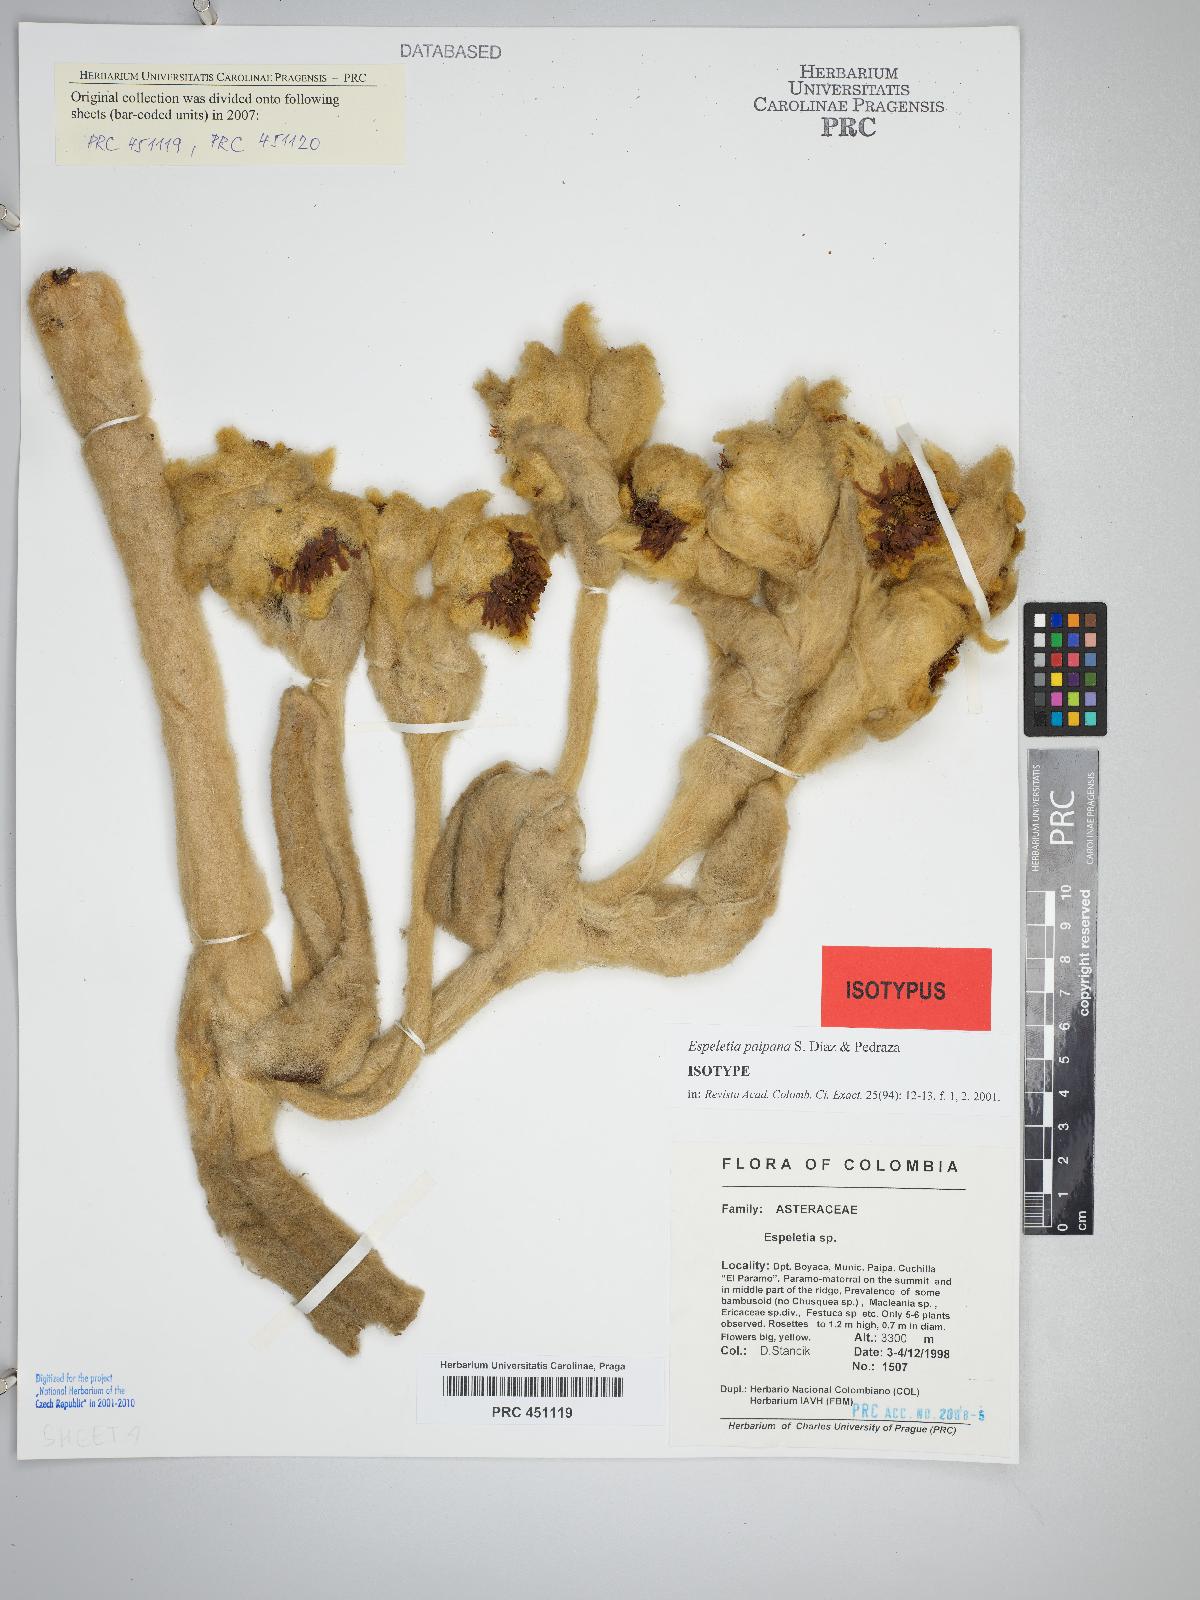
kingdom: Plantae
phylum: Tracheophyta
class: Magnoliopsida
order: Asterales
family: Asteraceae
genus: Espeletia
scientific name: Espeletia paipana
